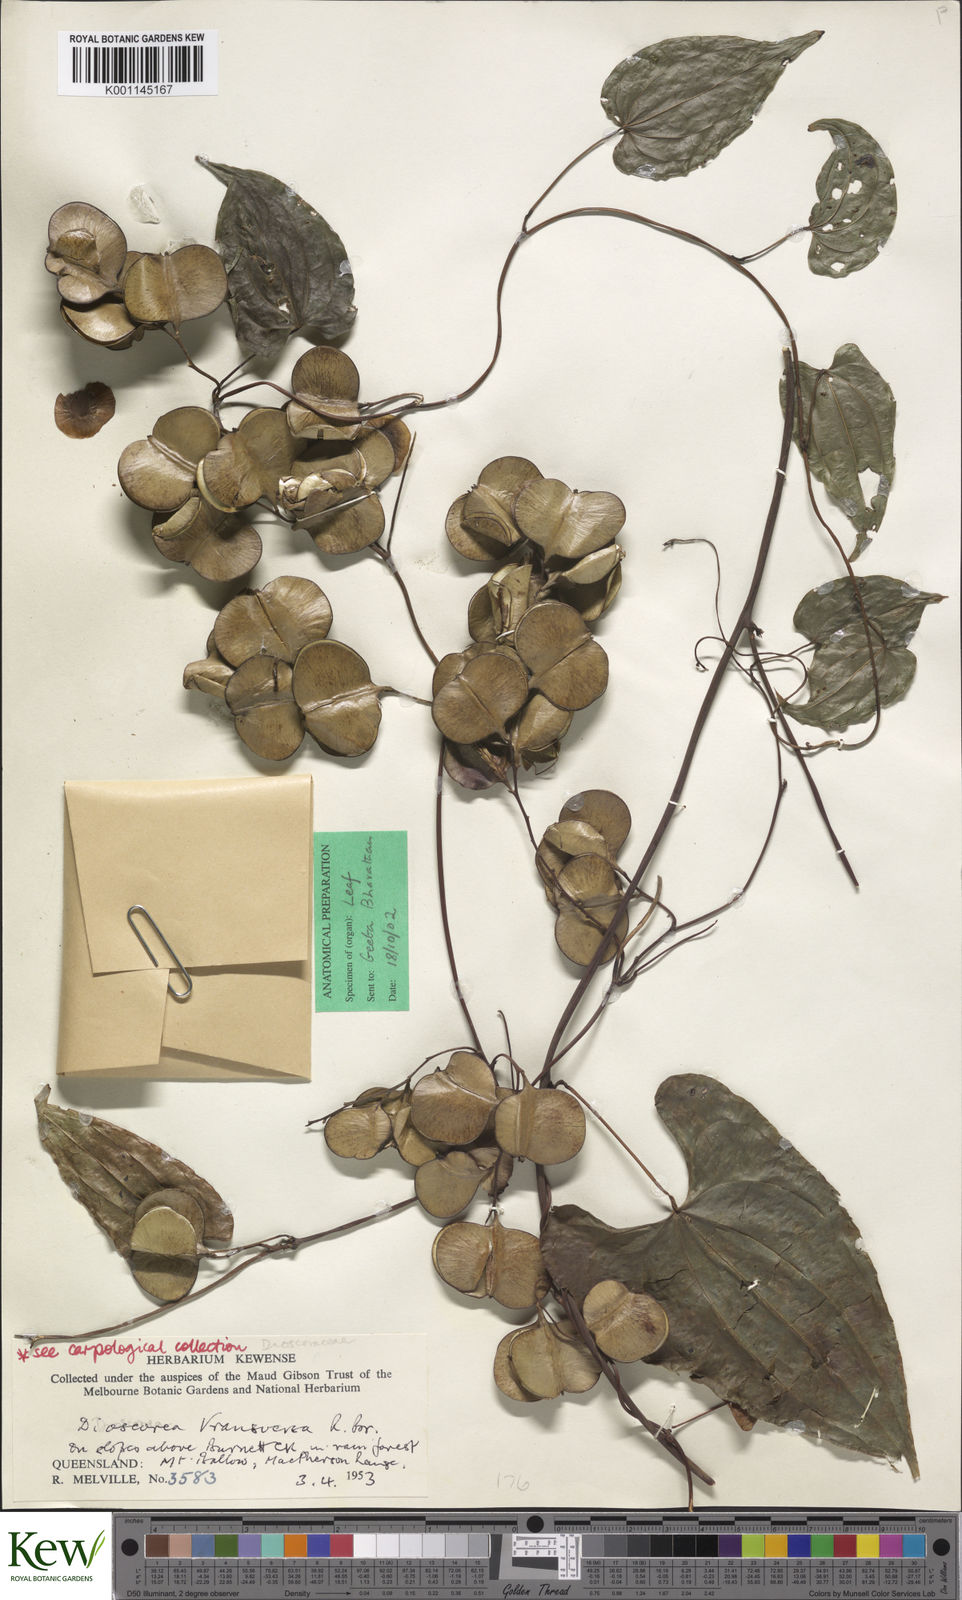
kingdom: Plantae
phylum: Tracheophyta
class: Liliopsida
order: Dioscoreales
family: Dioscoreaceae
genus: Dioscorea
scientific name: Dioscorea transversa
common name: Long yam
